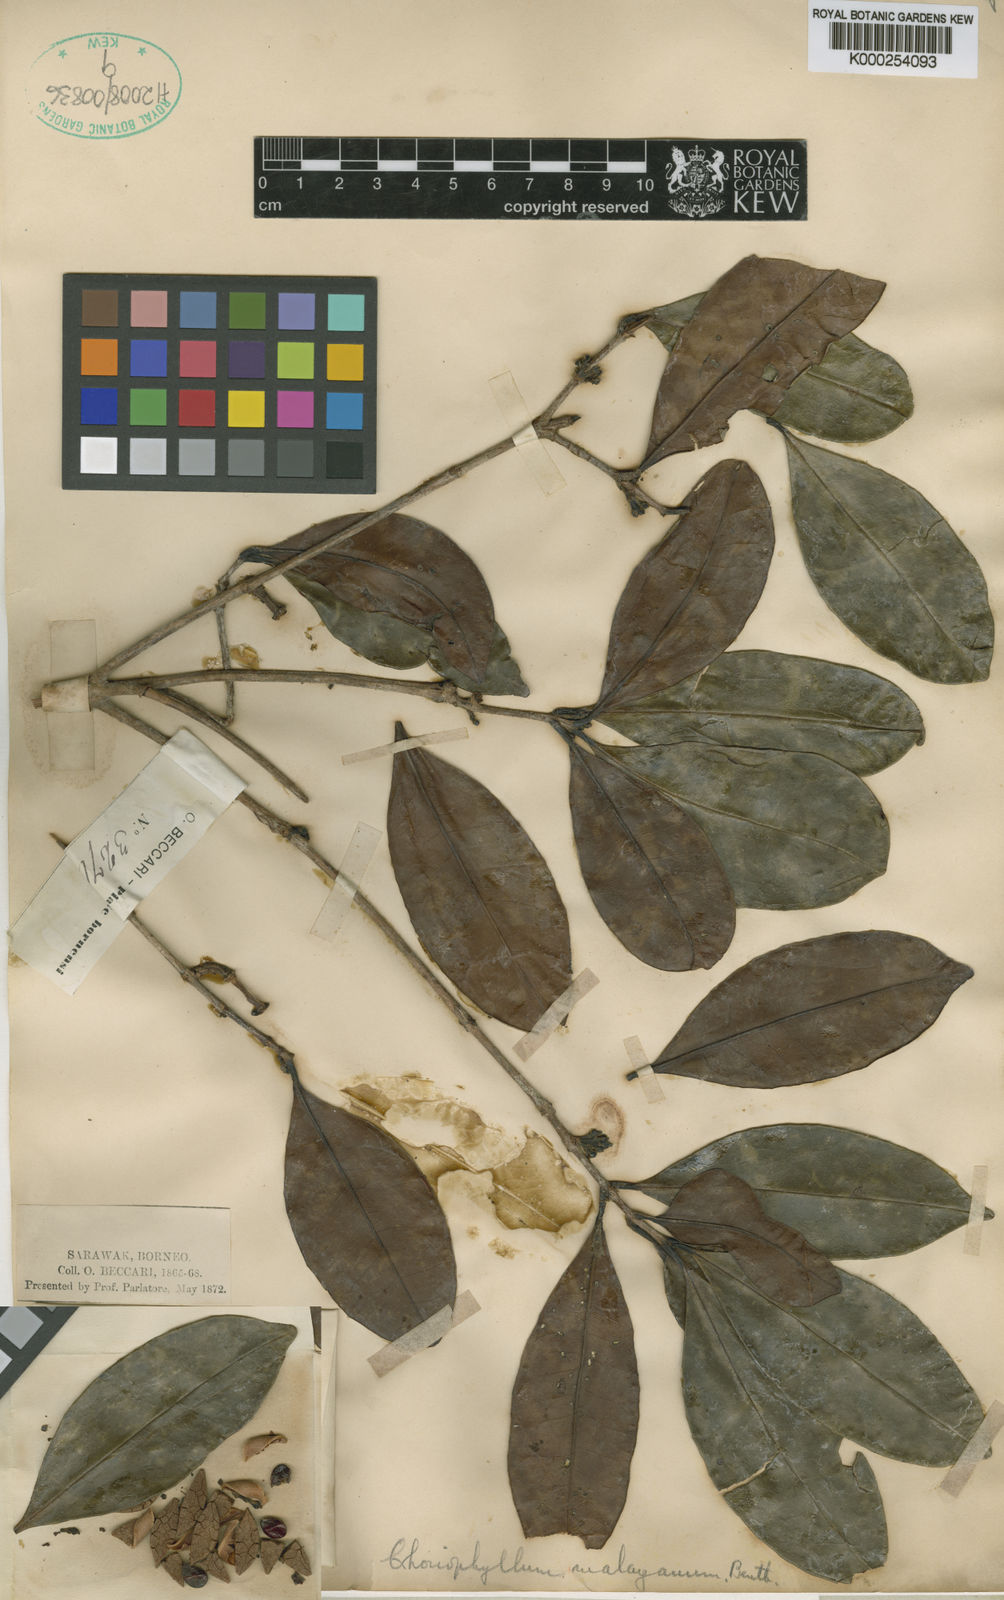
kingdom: Plantae
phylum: Tracheophyta
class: Magnoliopsida
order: Malpighiales
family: Picrodendraceae
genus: Austrobuxus
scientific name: Austrobuxus nitidus
